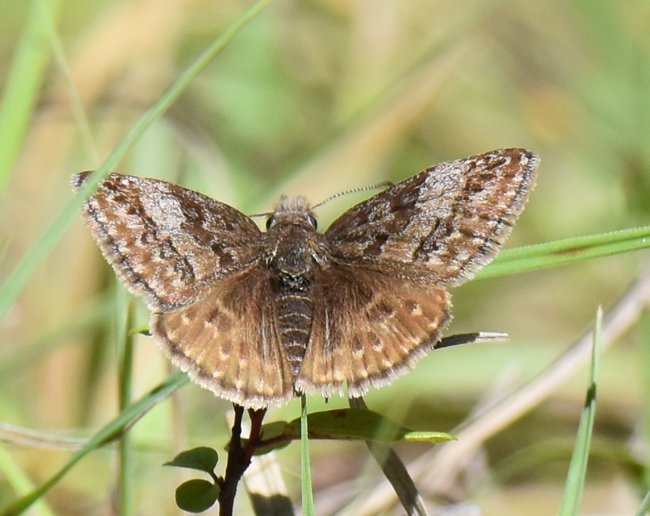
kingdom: Animalia
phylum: Arthropoda
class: Insecta
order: Lepidoptera
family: Hesperiidae
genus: Erynnis
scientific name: Erynnis icelus
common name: Dreamy Duskywing
